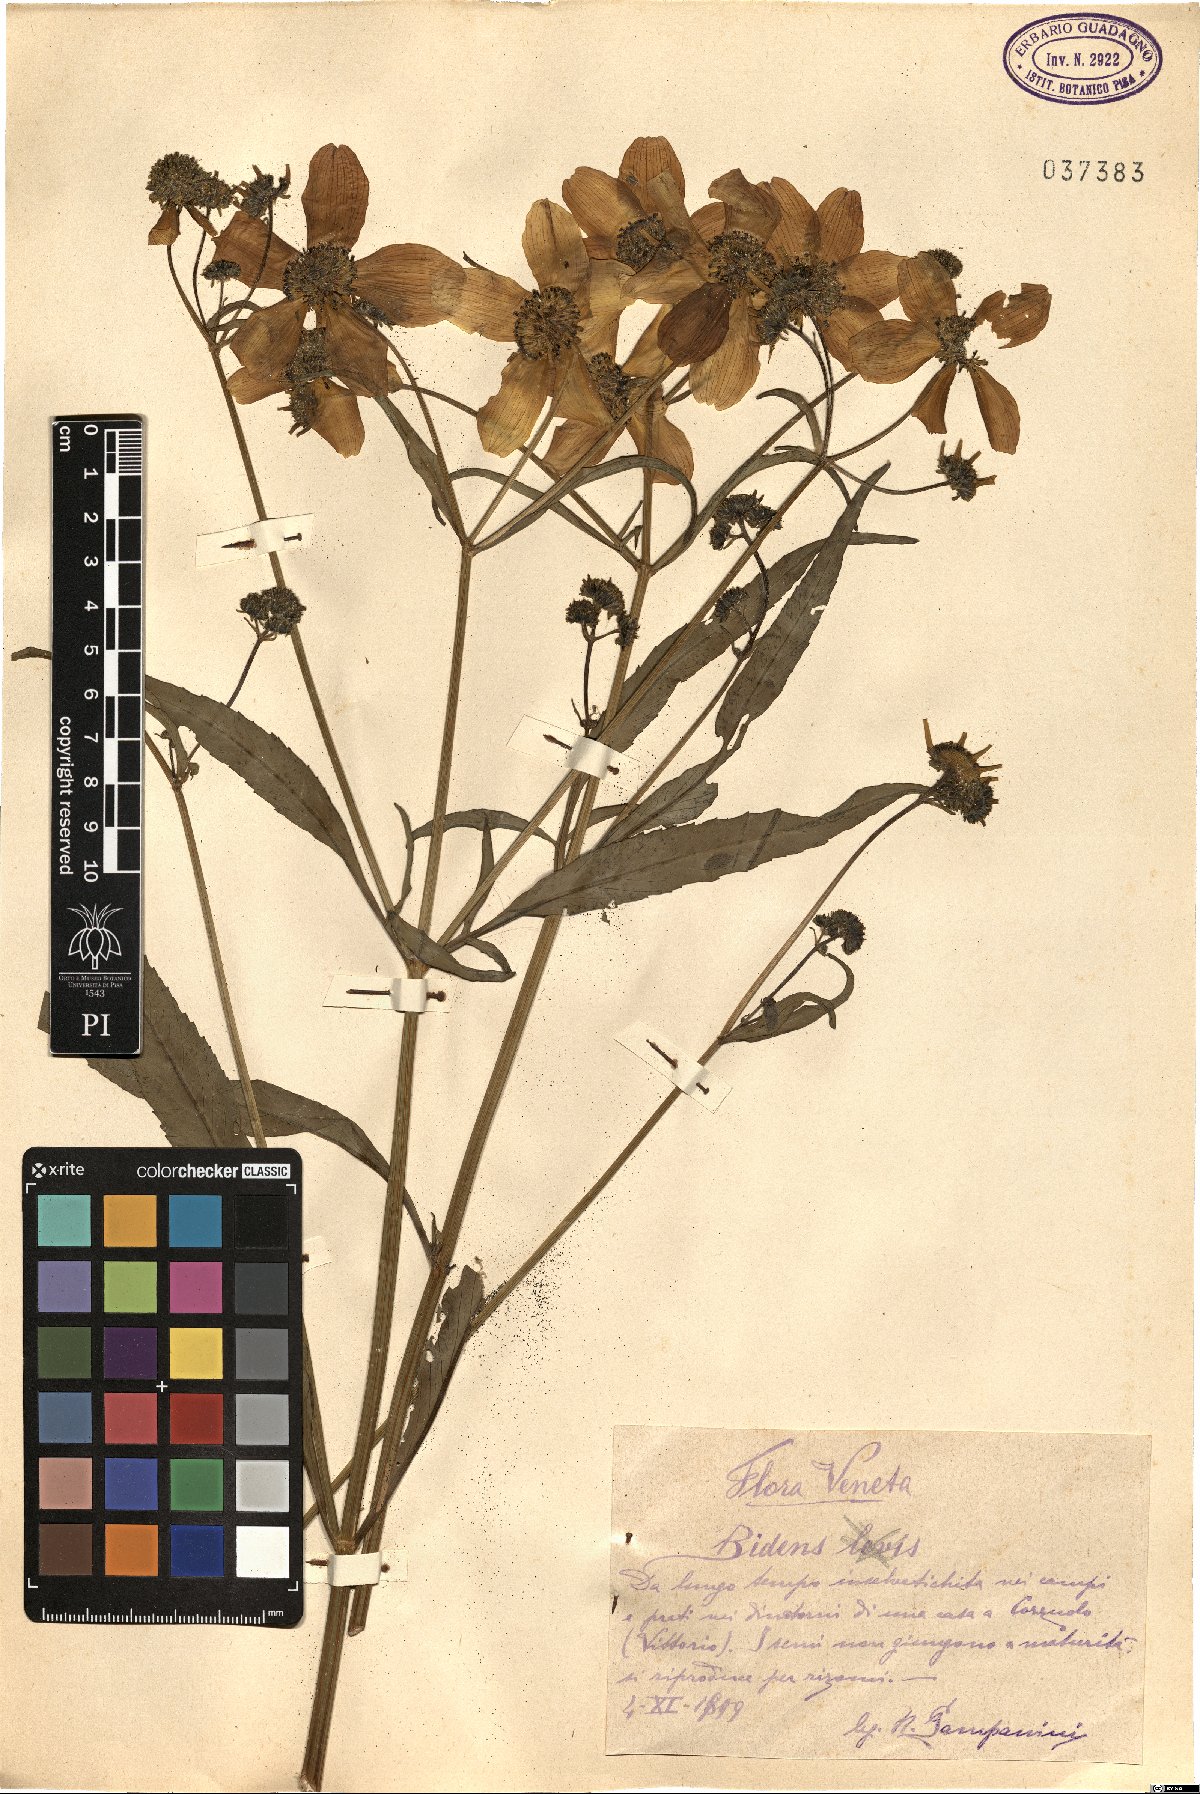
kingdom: Plantae
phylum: Tracheophyta
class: Magnoliopsida
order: Asterales
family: Asteraceae
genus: Bidens
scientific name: Bidens aurea
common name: Arizona beggar-ticks
